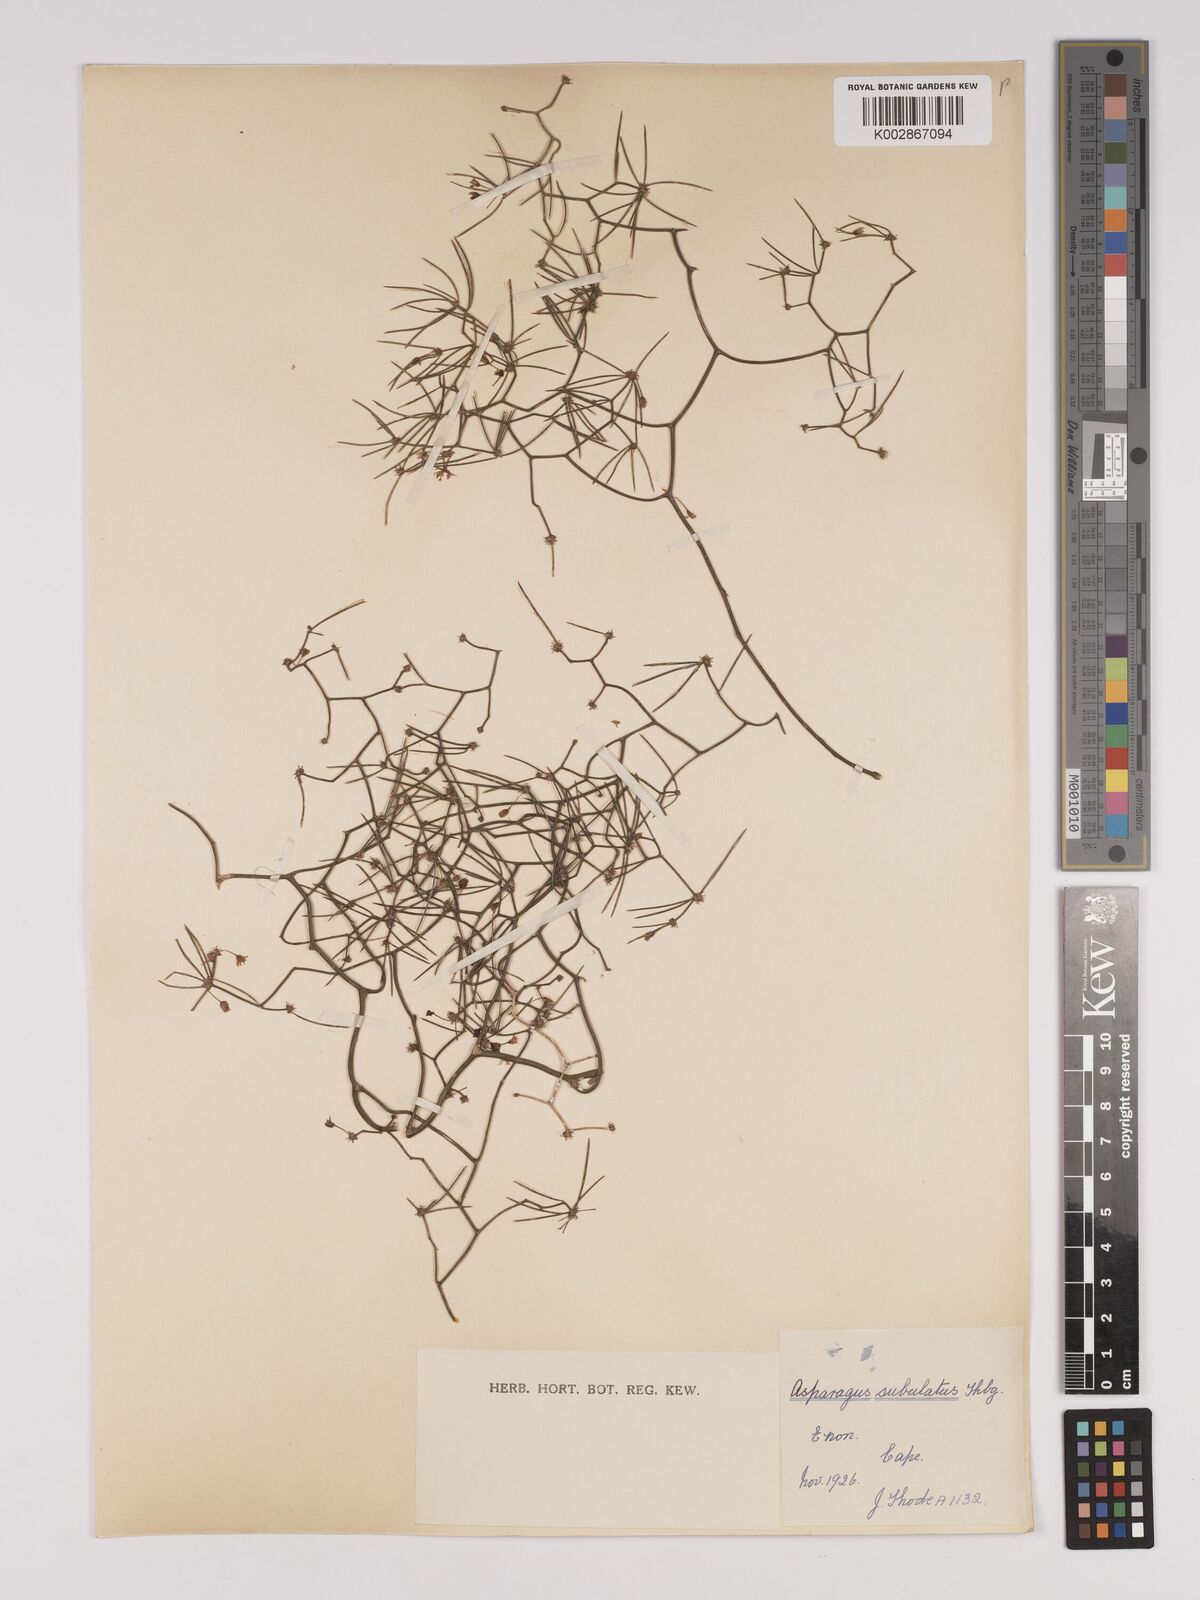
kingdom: Plantae
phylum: Tracheophyta
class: Liliopsida
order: Asparagales
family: Asparagaceae
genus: Asparagus
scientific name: Asparagus subulatus
